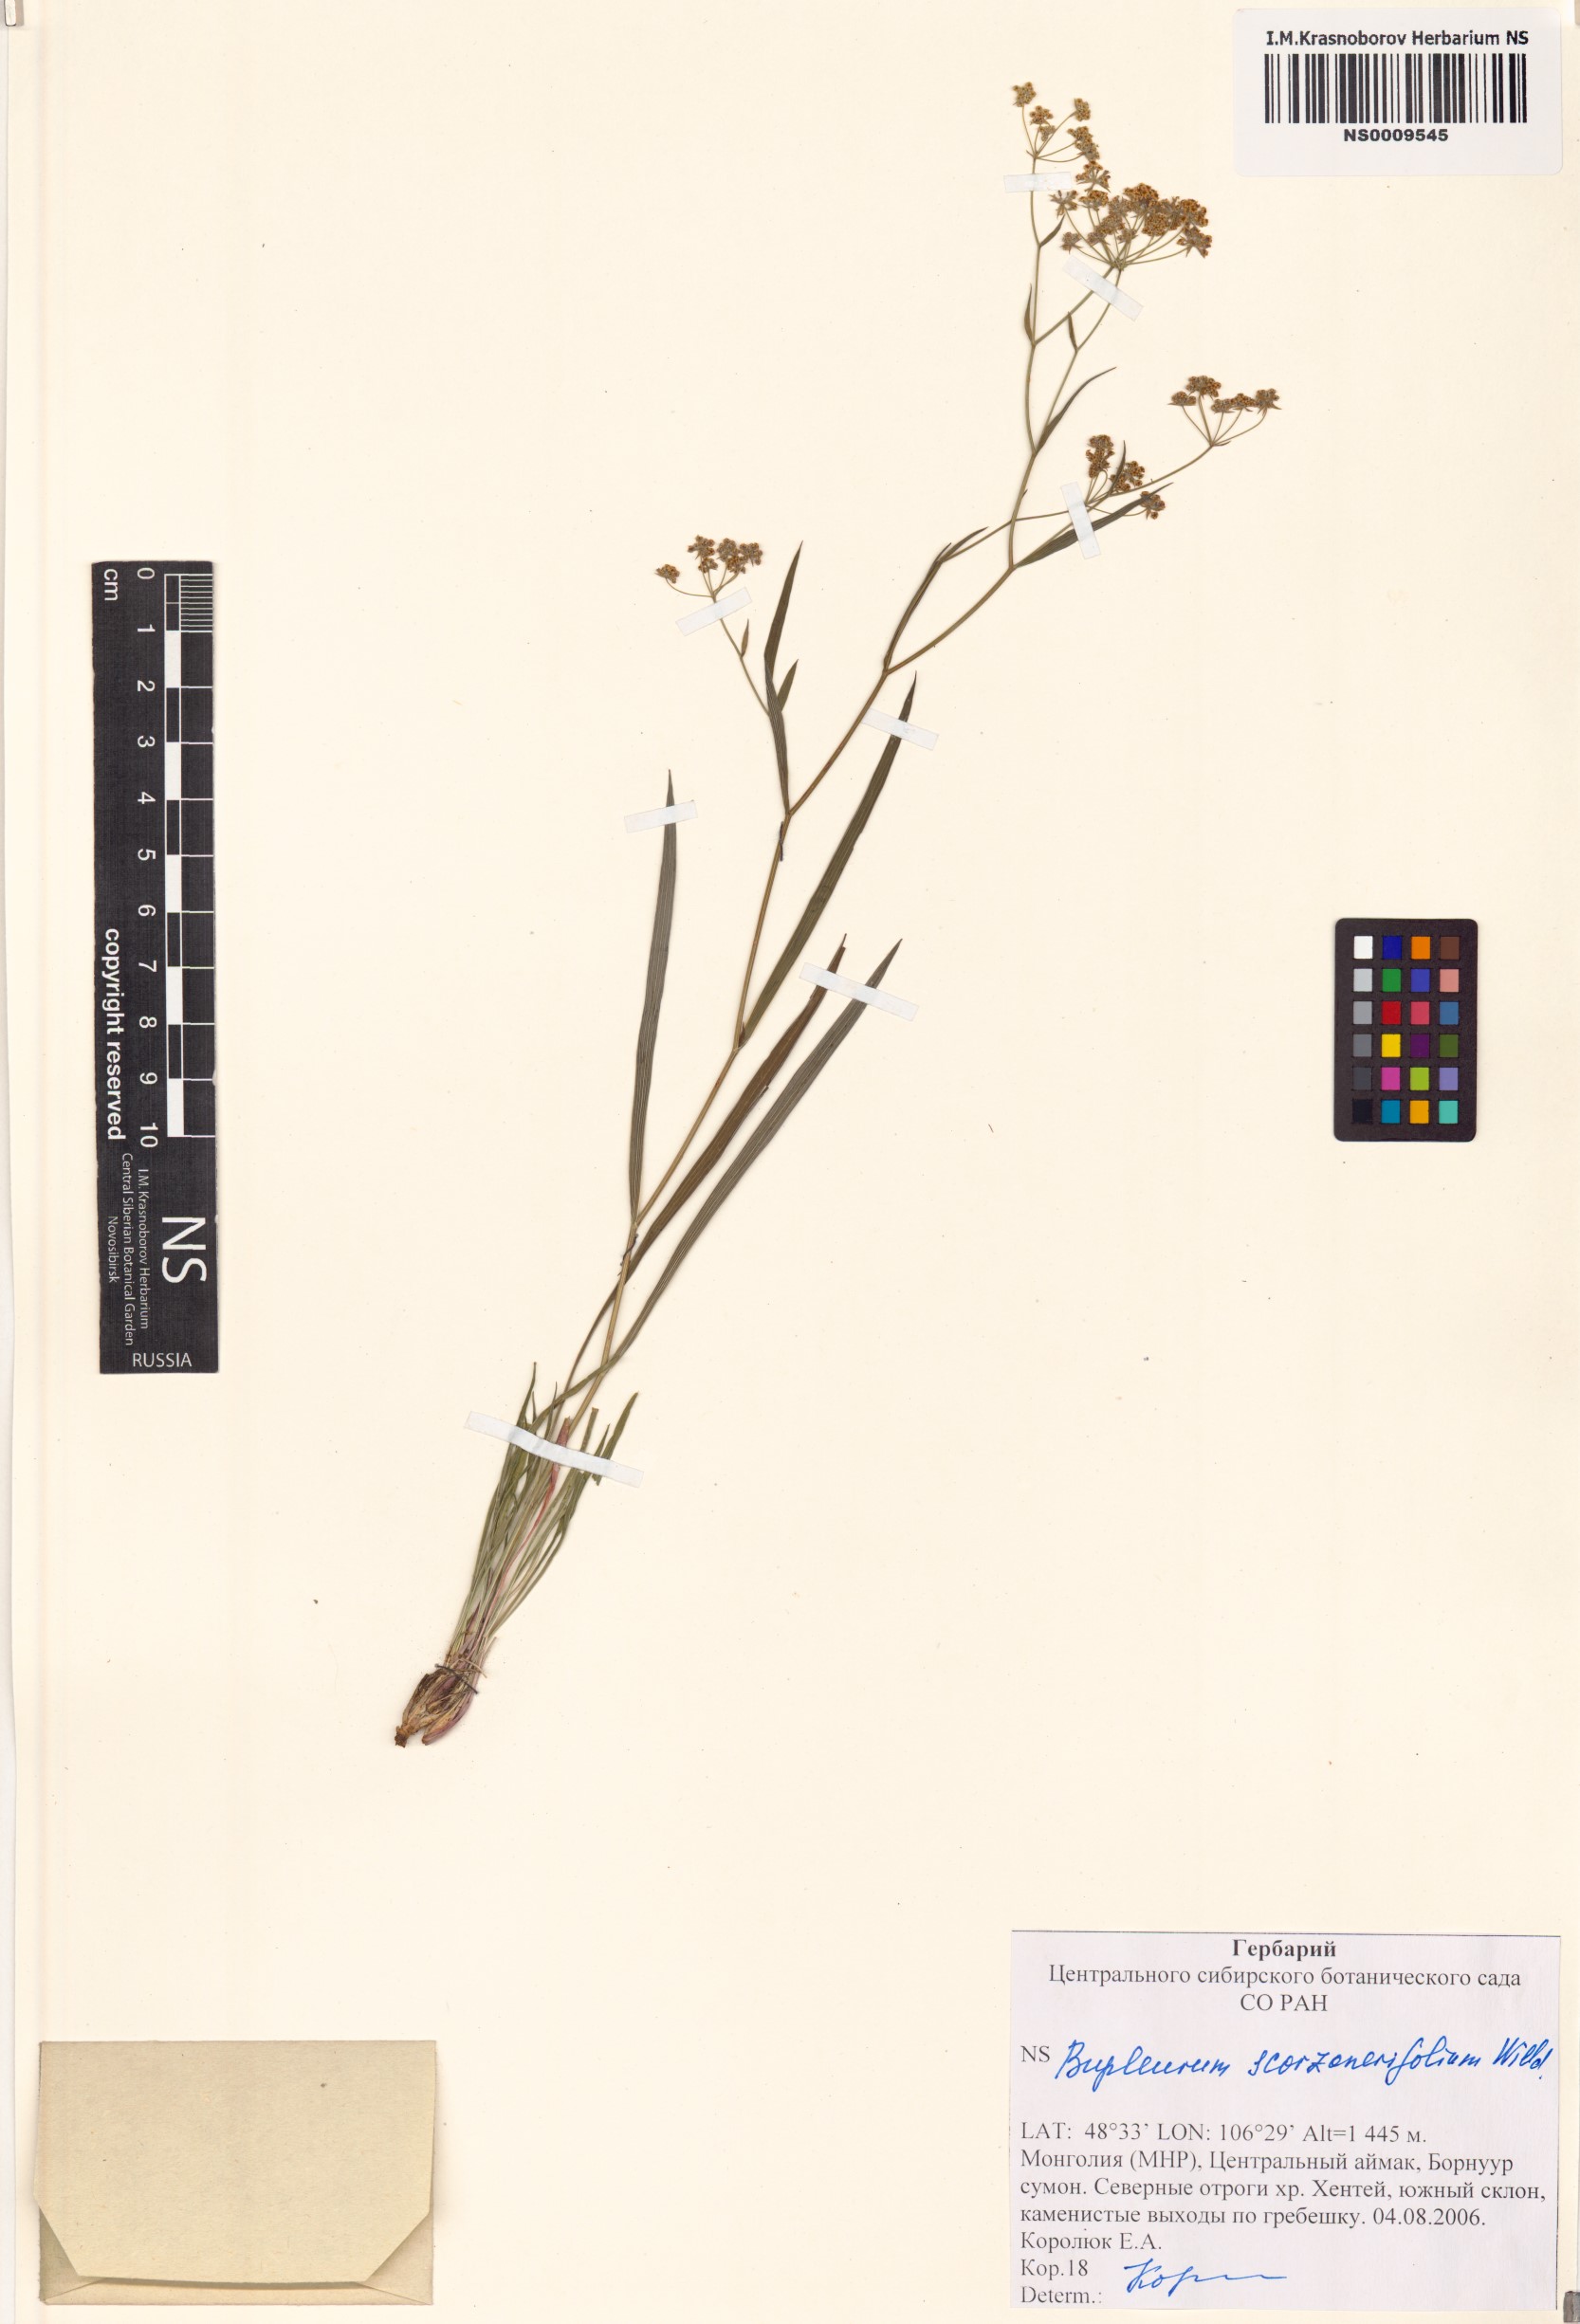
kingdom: Plantae
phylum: Tracheophyta
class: Magnoliopsida
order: Apiales
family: Apiaceae
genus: Bupleurum
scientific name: Bupleurum scorzonerifolium
